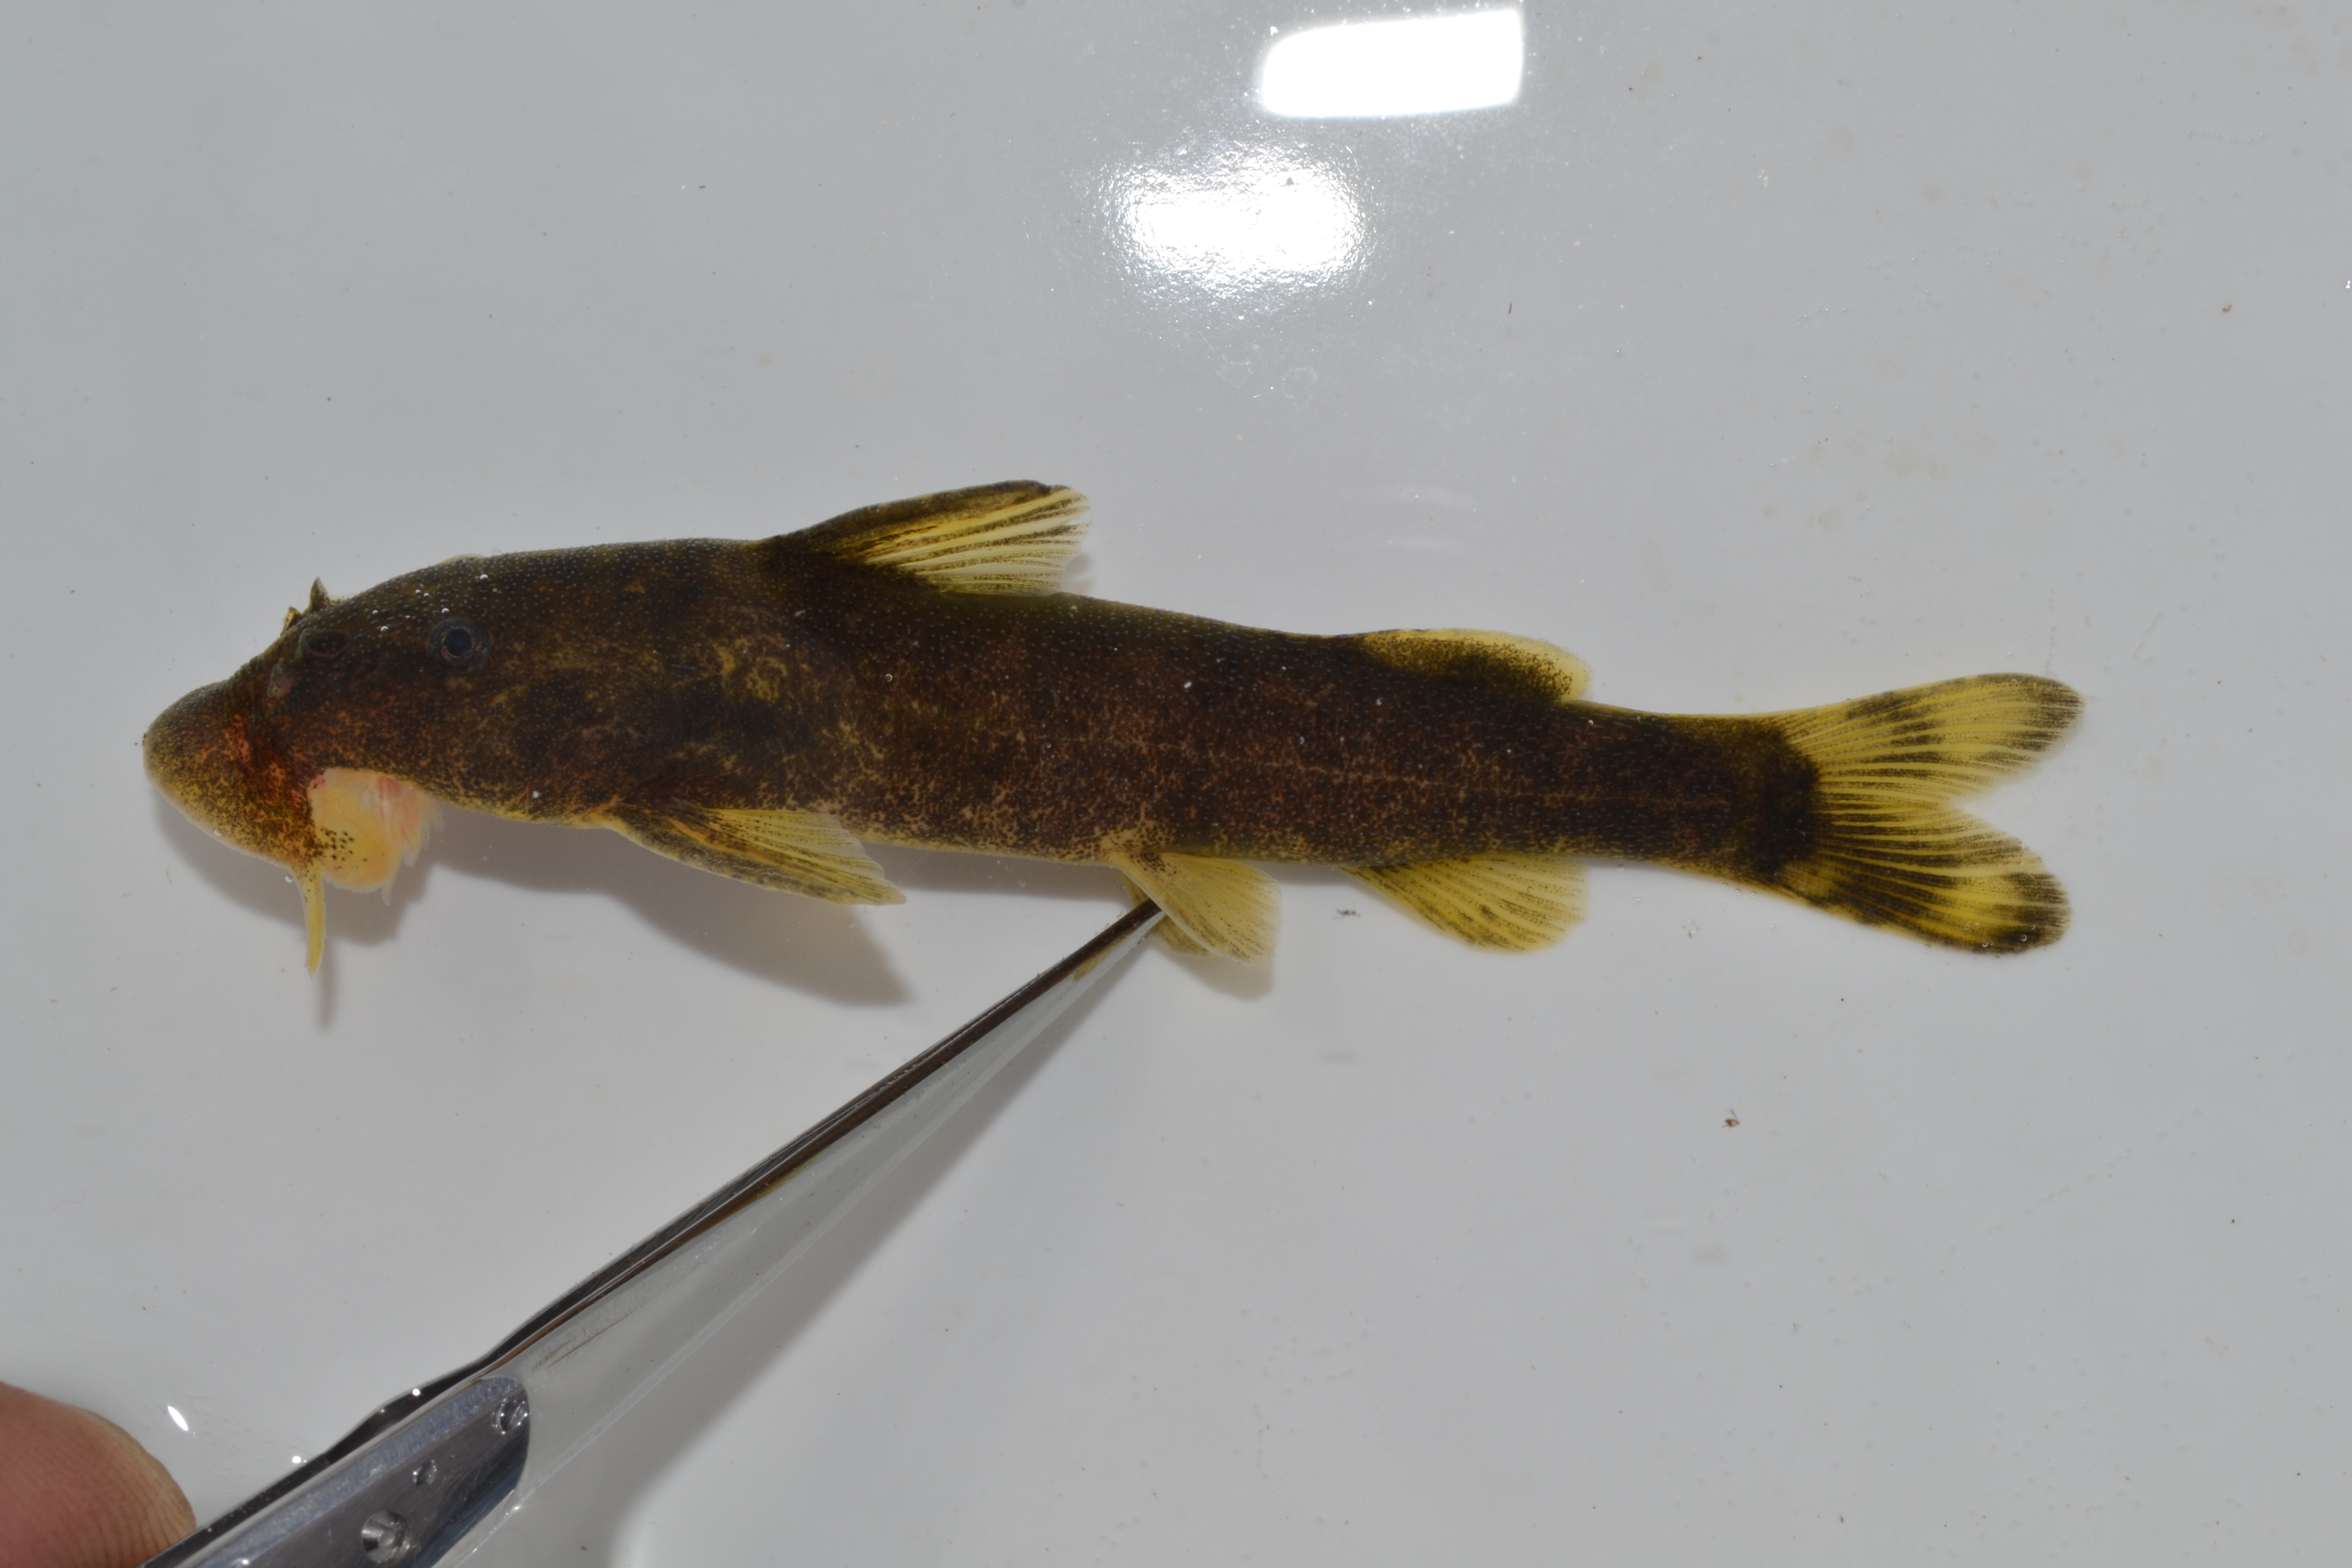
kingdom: Animalia
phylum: Chordata
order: Siluriformes
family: Mochokidae
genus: Chiloglanis
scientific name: Chiloglanis paratus
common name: Sawfin catlet
